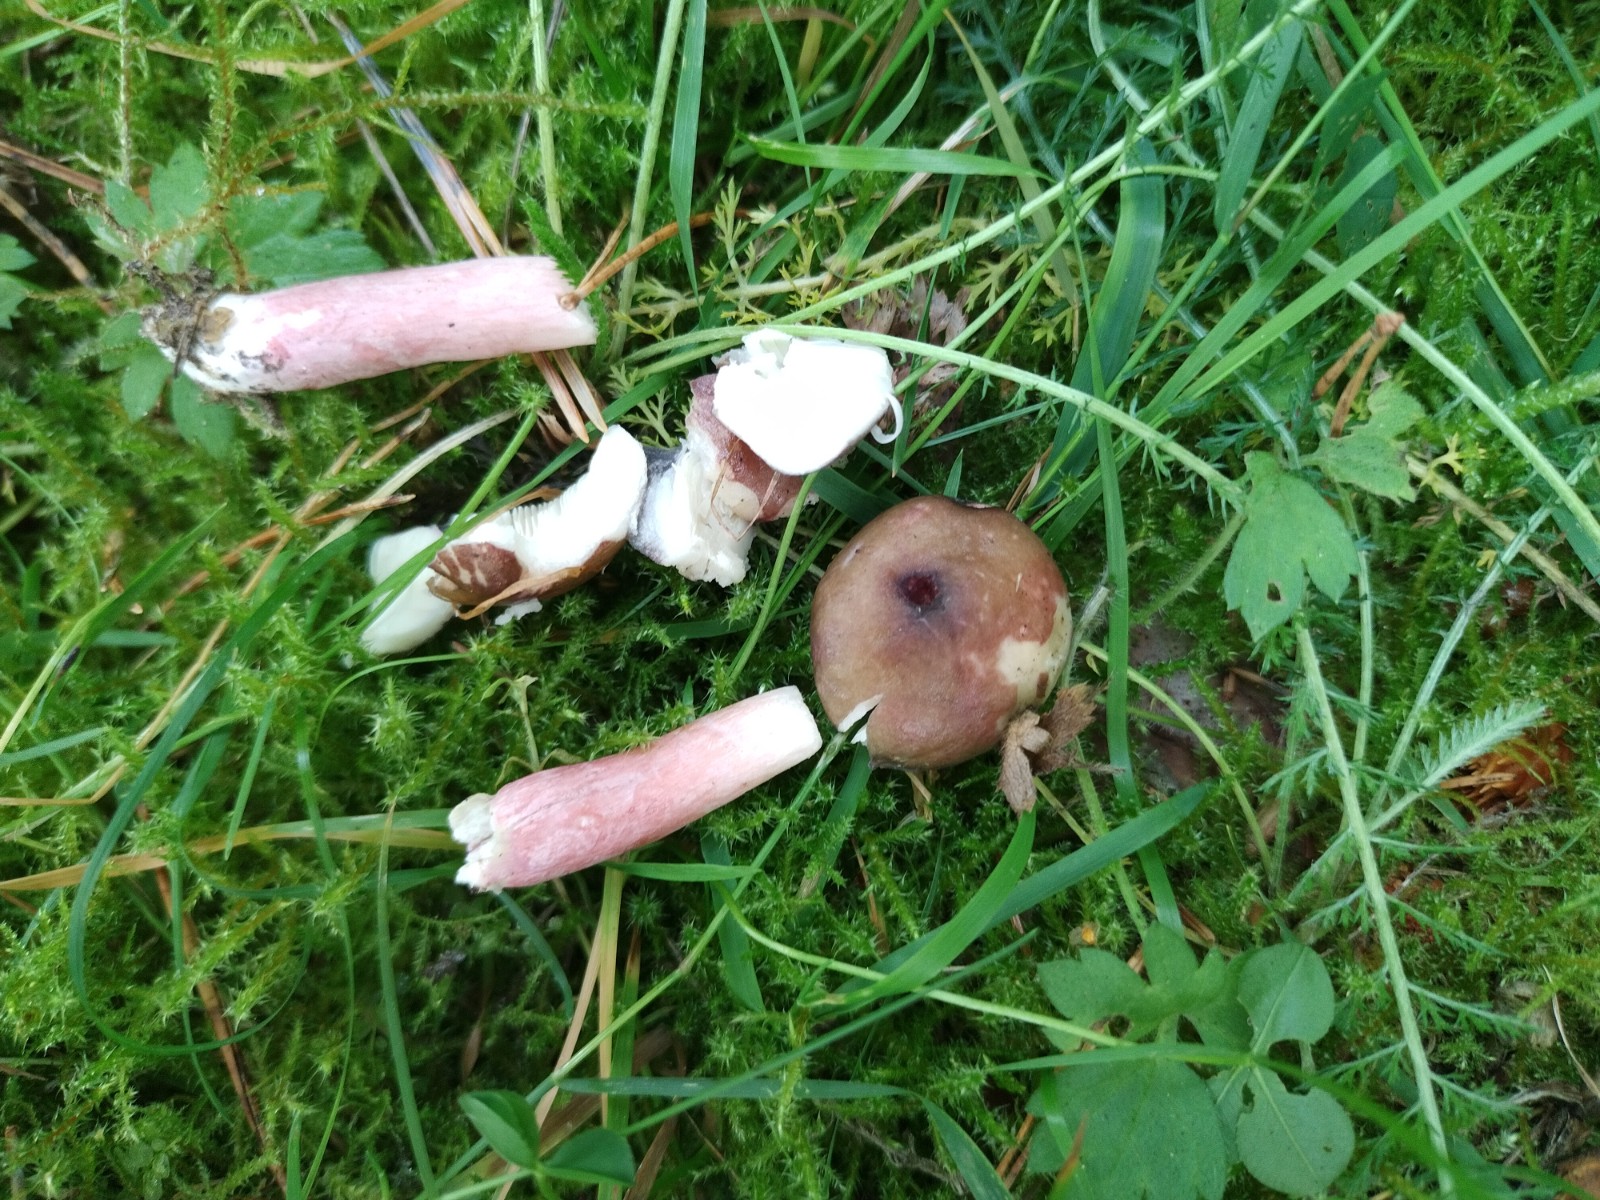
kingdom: Fungi
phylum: Basidiomycota
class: Agaricomycetes
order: Russulales
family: Russulaceae
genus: Russula
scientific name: Russula queletii
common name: Quélets skørhat
